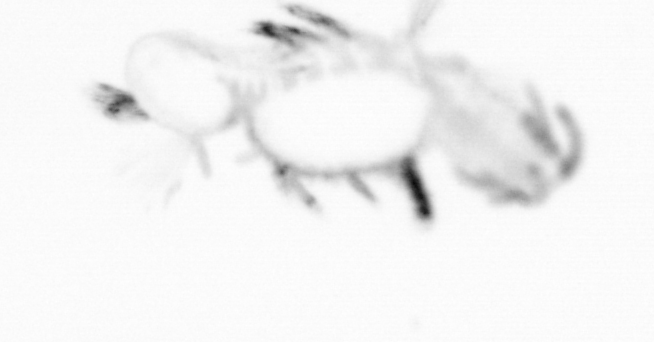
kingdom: Animalia
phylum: Annelida
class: Polychaeta
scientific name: Polychaeta
